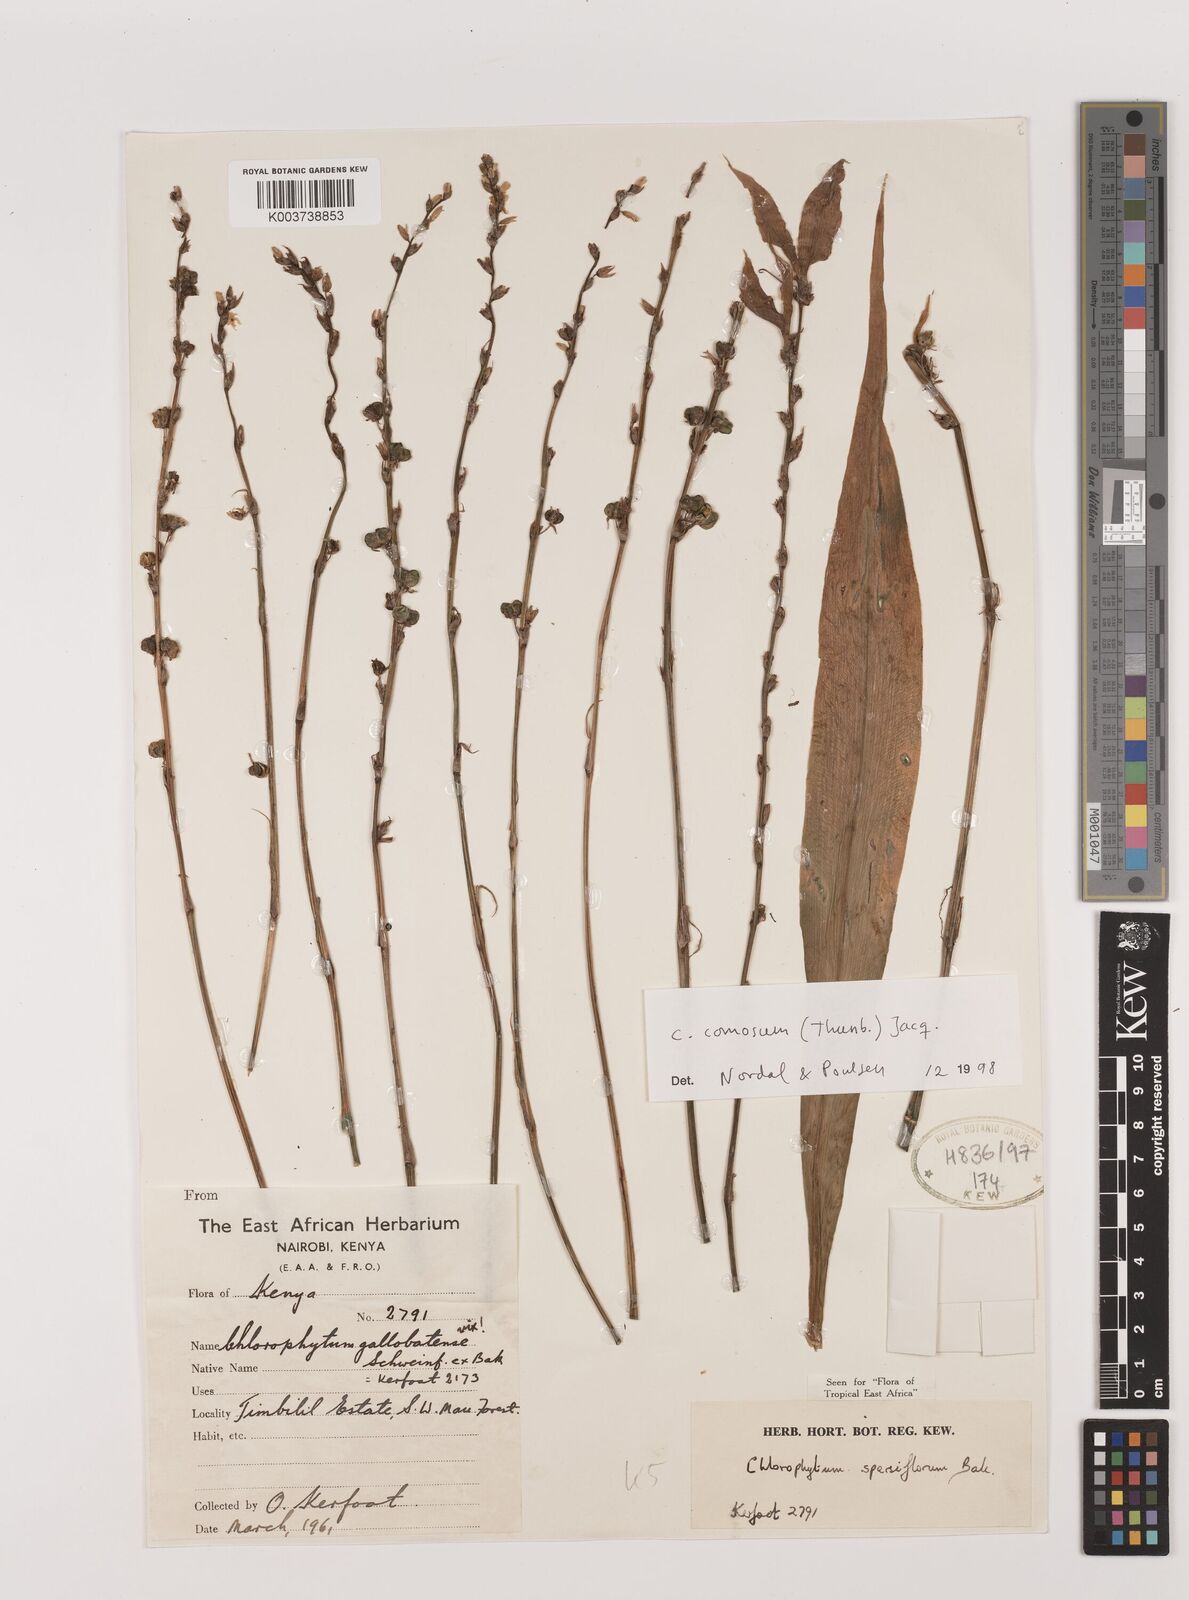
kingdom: Plantae
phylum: Tracheophyta
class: Liliopsida
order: Asparagales
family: Asparagaceae
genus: Chlorophytum
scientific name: Chlorophytum comosum
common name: Spider plant
